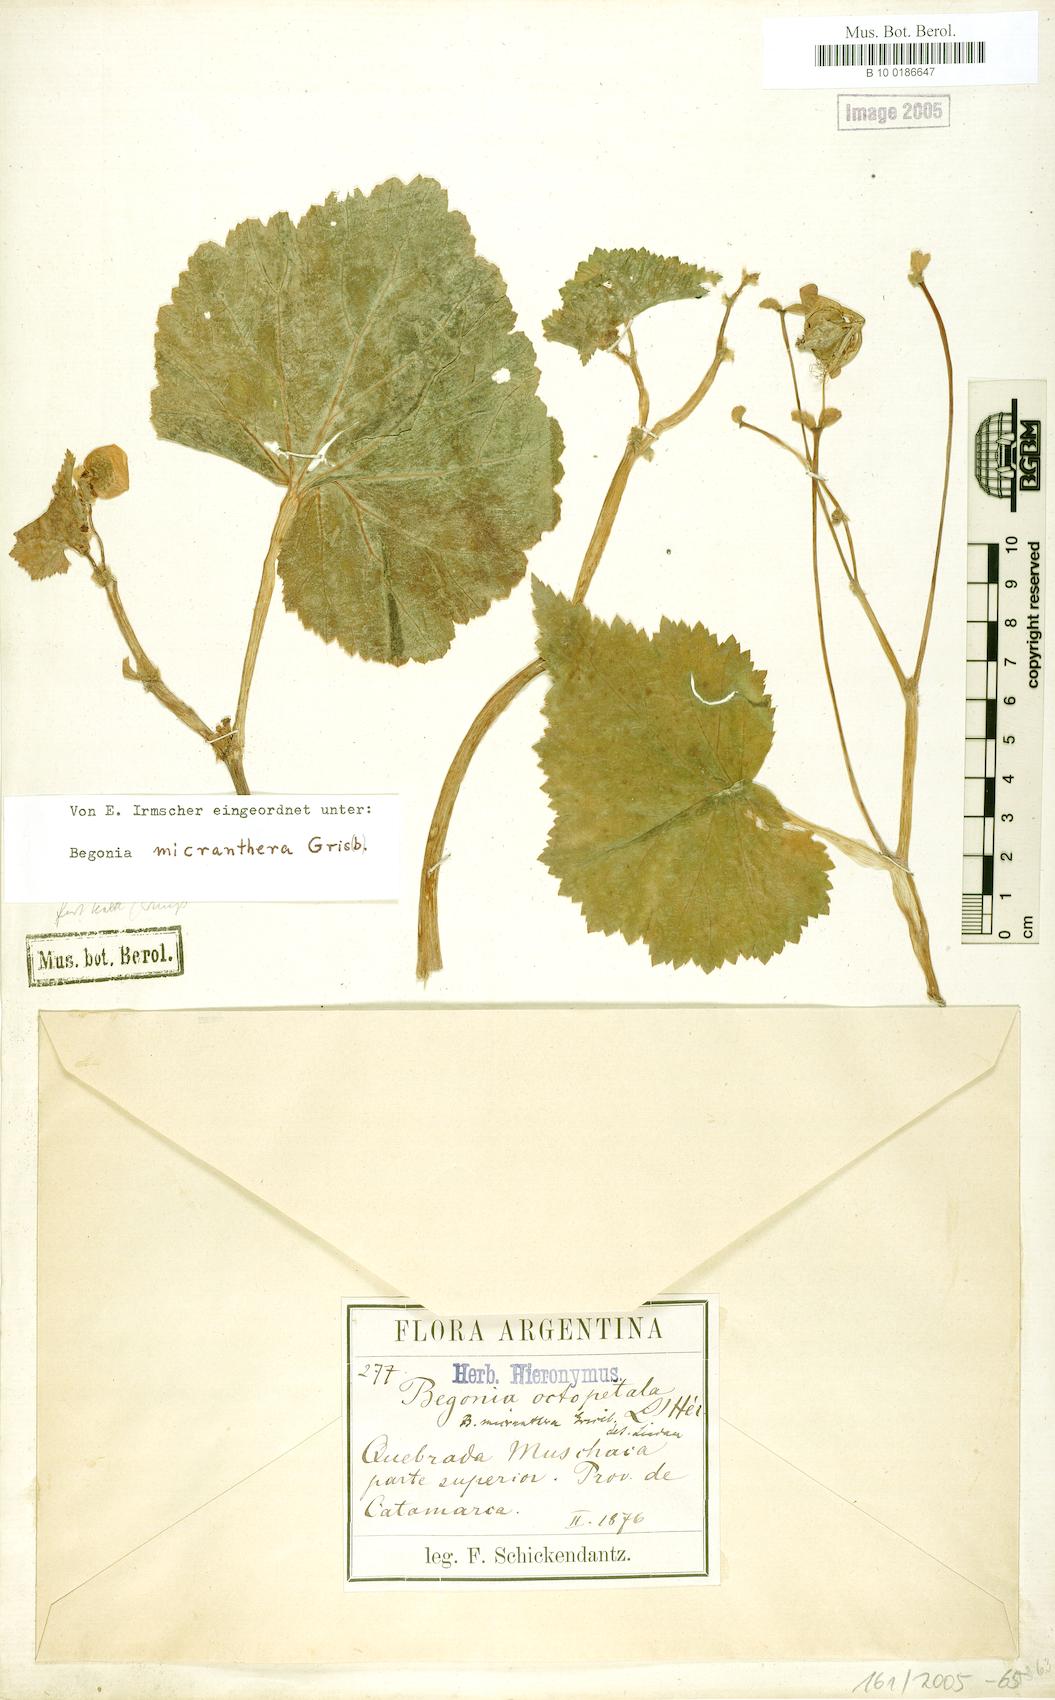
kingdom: Plantae
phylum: Tracheophyta
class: Magnoliopsida
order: Cucurbitales
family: Begoniaceae
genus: Begonia
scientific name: Begonia micranthera
